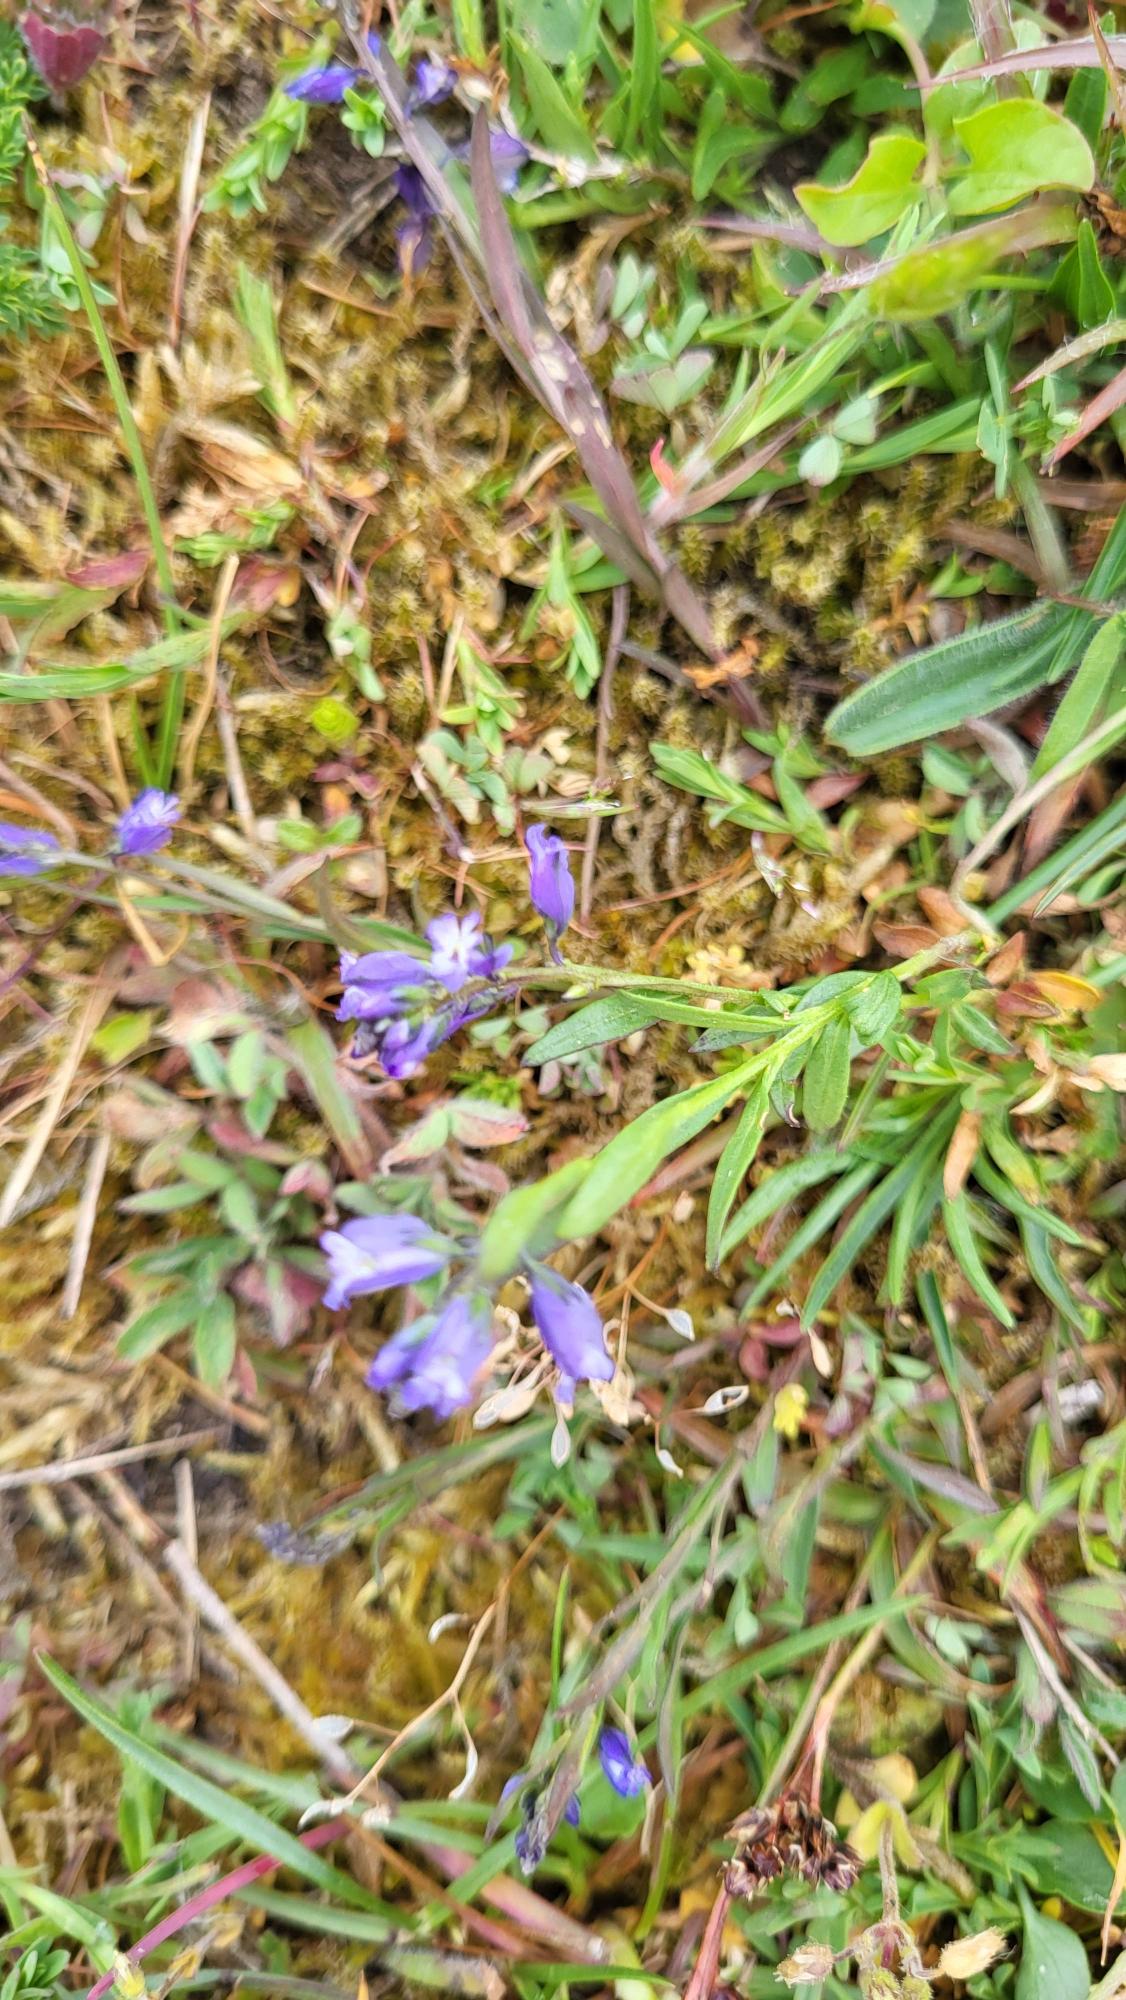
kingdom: Plantae
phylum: Tracheophyta
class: Magnoliopsida
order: Fabales
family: Polygalaceae
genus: Polygala
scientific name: Polygala vulgaris
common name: Almindelig mælkeurt
